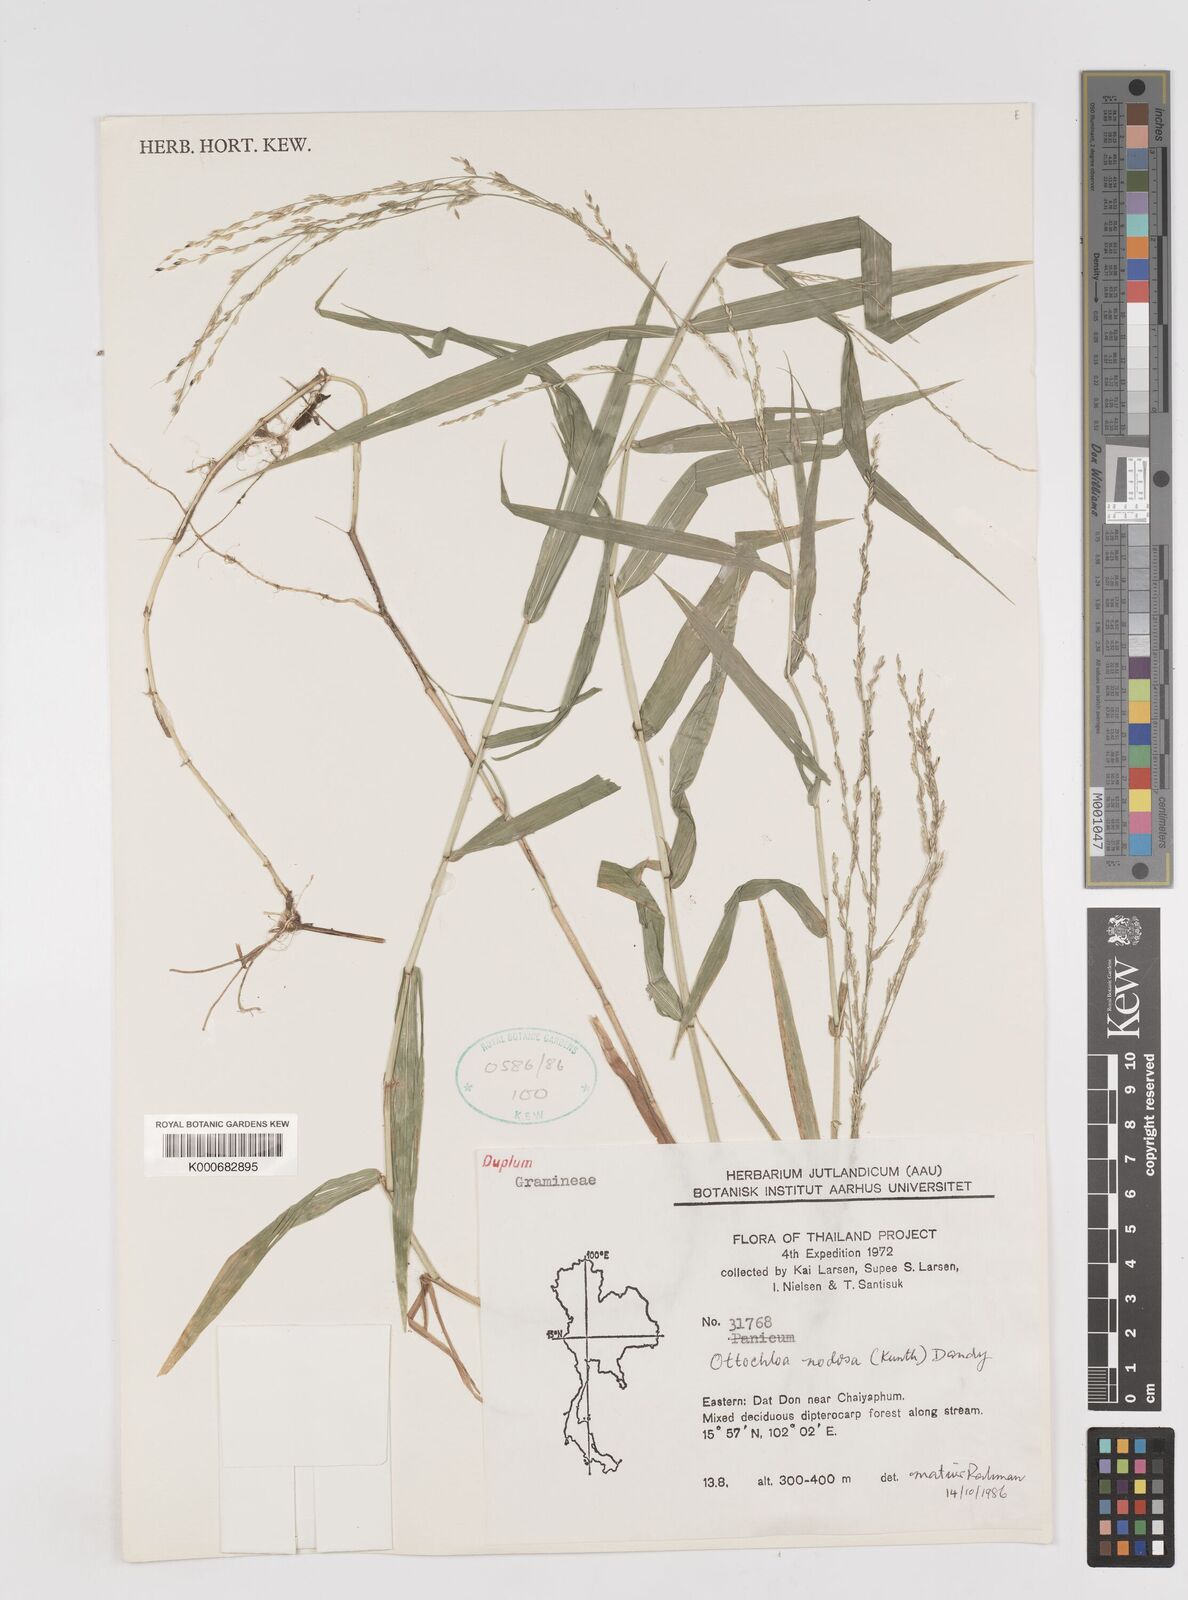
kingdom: Plantae
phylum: Tracheophyta
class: Liliopsida
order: Poales
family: Poaceae
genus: Ottochloa
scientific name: Ottochloa nodosa
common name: Slender-panic grass
